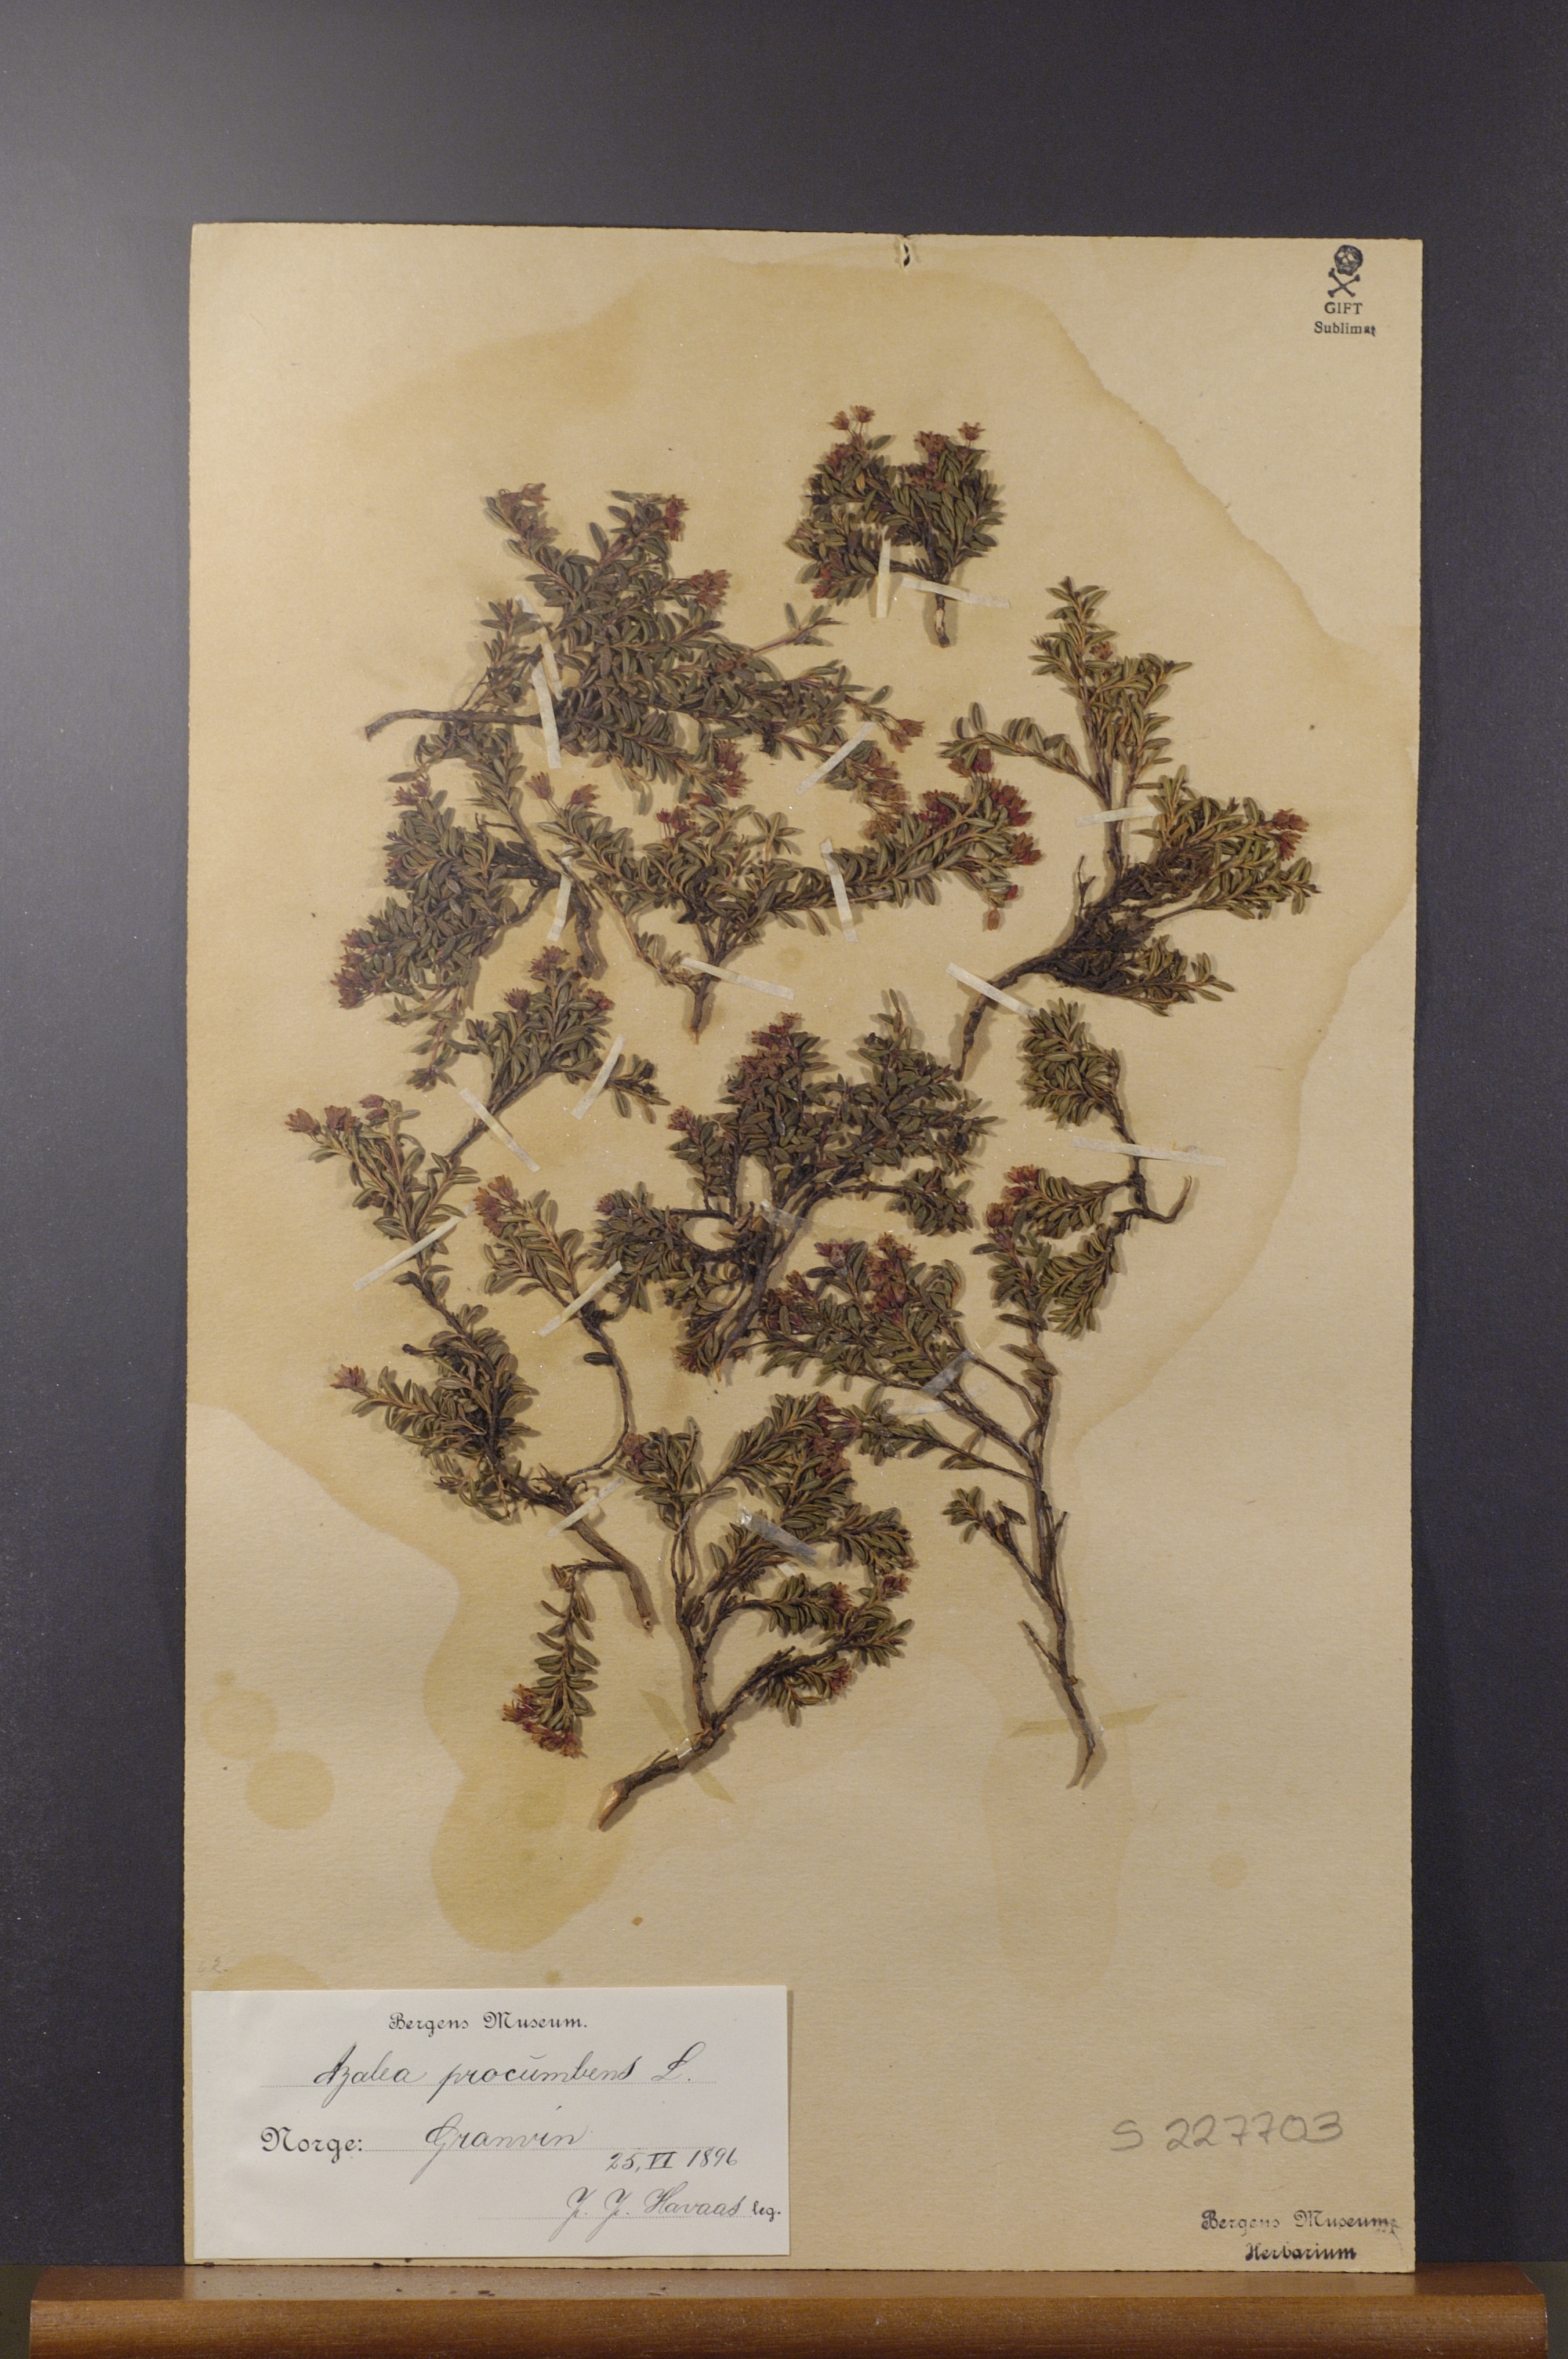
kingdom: Plantae
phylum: Tracheophyta
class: Magnoliopsida
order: Ericales
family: Ericaceae
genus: Kalmia
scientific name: Kalmia procumbens
